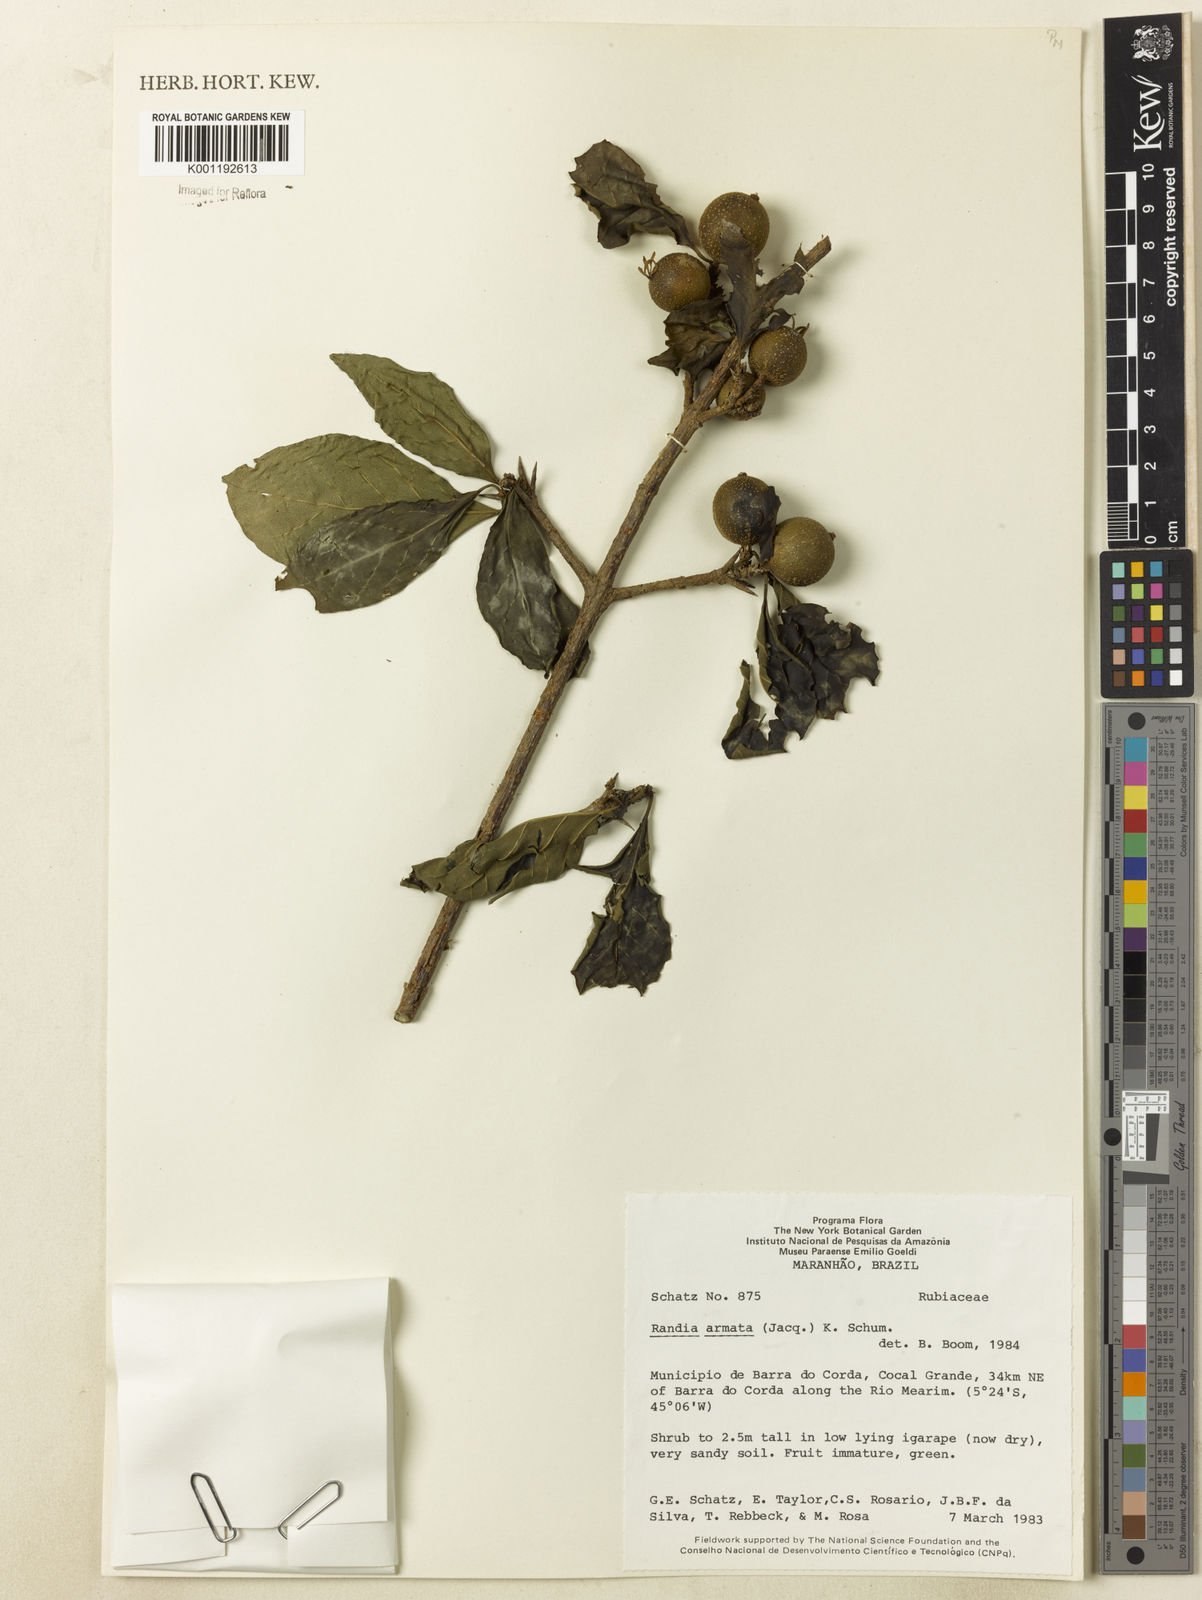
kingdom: Plantae
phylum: Tracheophyta
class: Magnoliopsida
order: Gentianales
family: Rubiaceae
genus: Randia
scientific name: Randia armata
